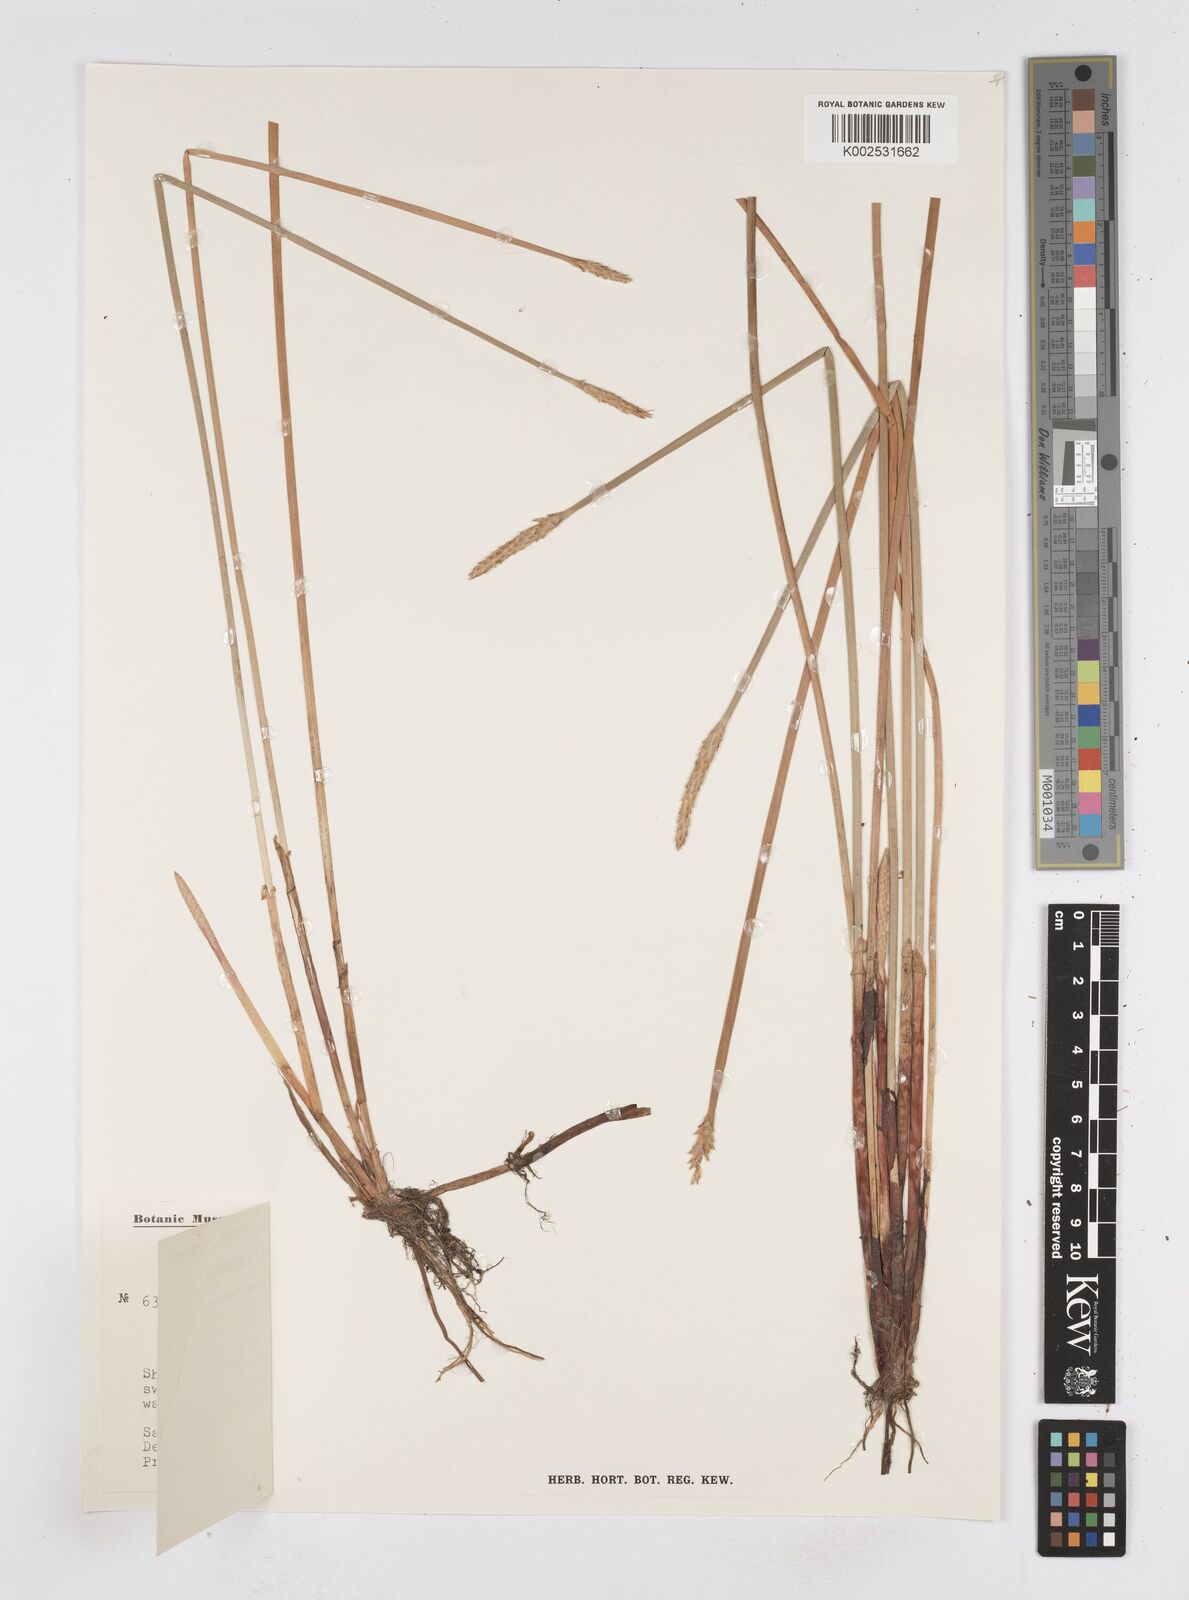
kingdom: Plantae
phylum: Tracheophyta
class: Liliopsida
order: Poales
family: Cyperaceae
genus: Eleocharis
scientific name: Eleocharis obtusetrigona
